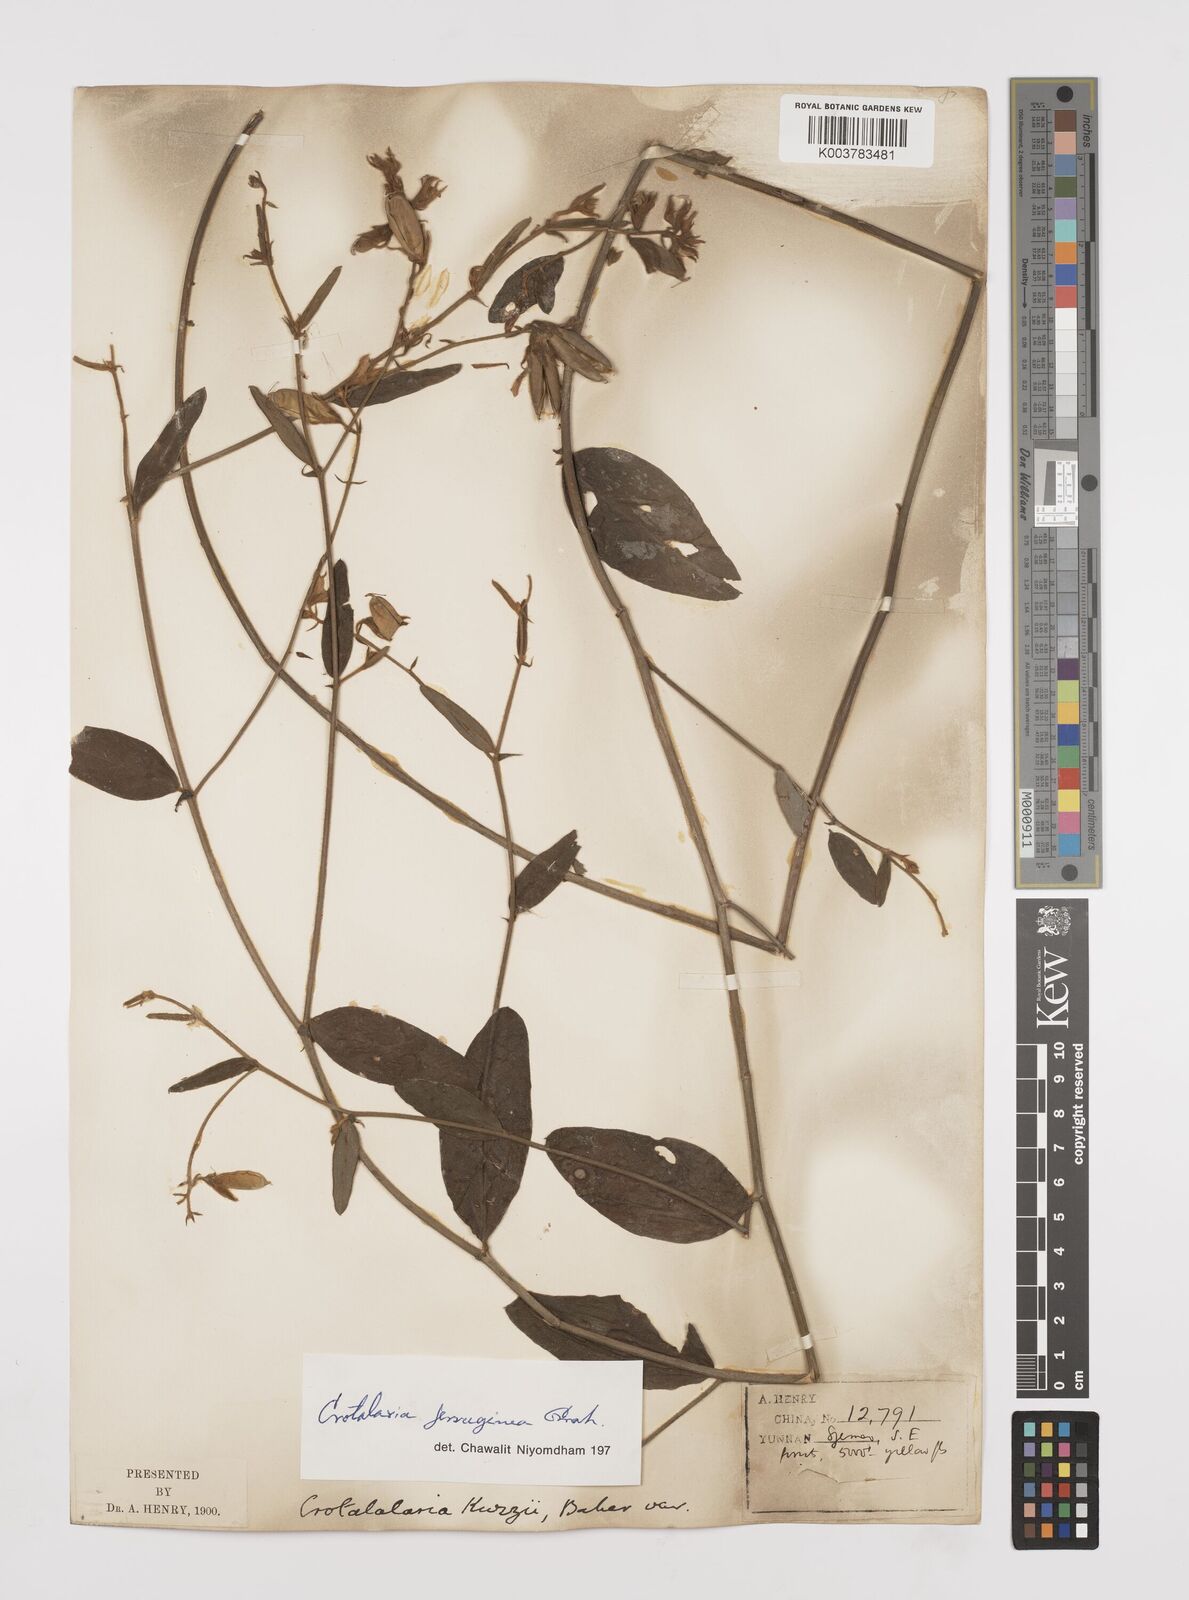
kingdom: Plantae
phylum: Tracheophyta
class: Magnoliopsida
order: Fabales
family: Fabaceae
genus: Crotalaria
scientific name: Crotalaria kurzii
